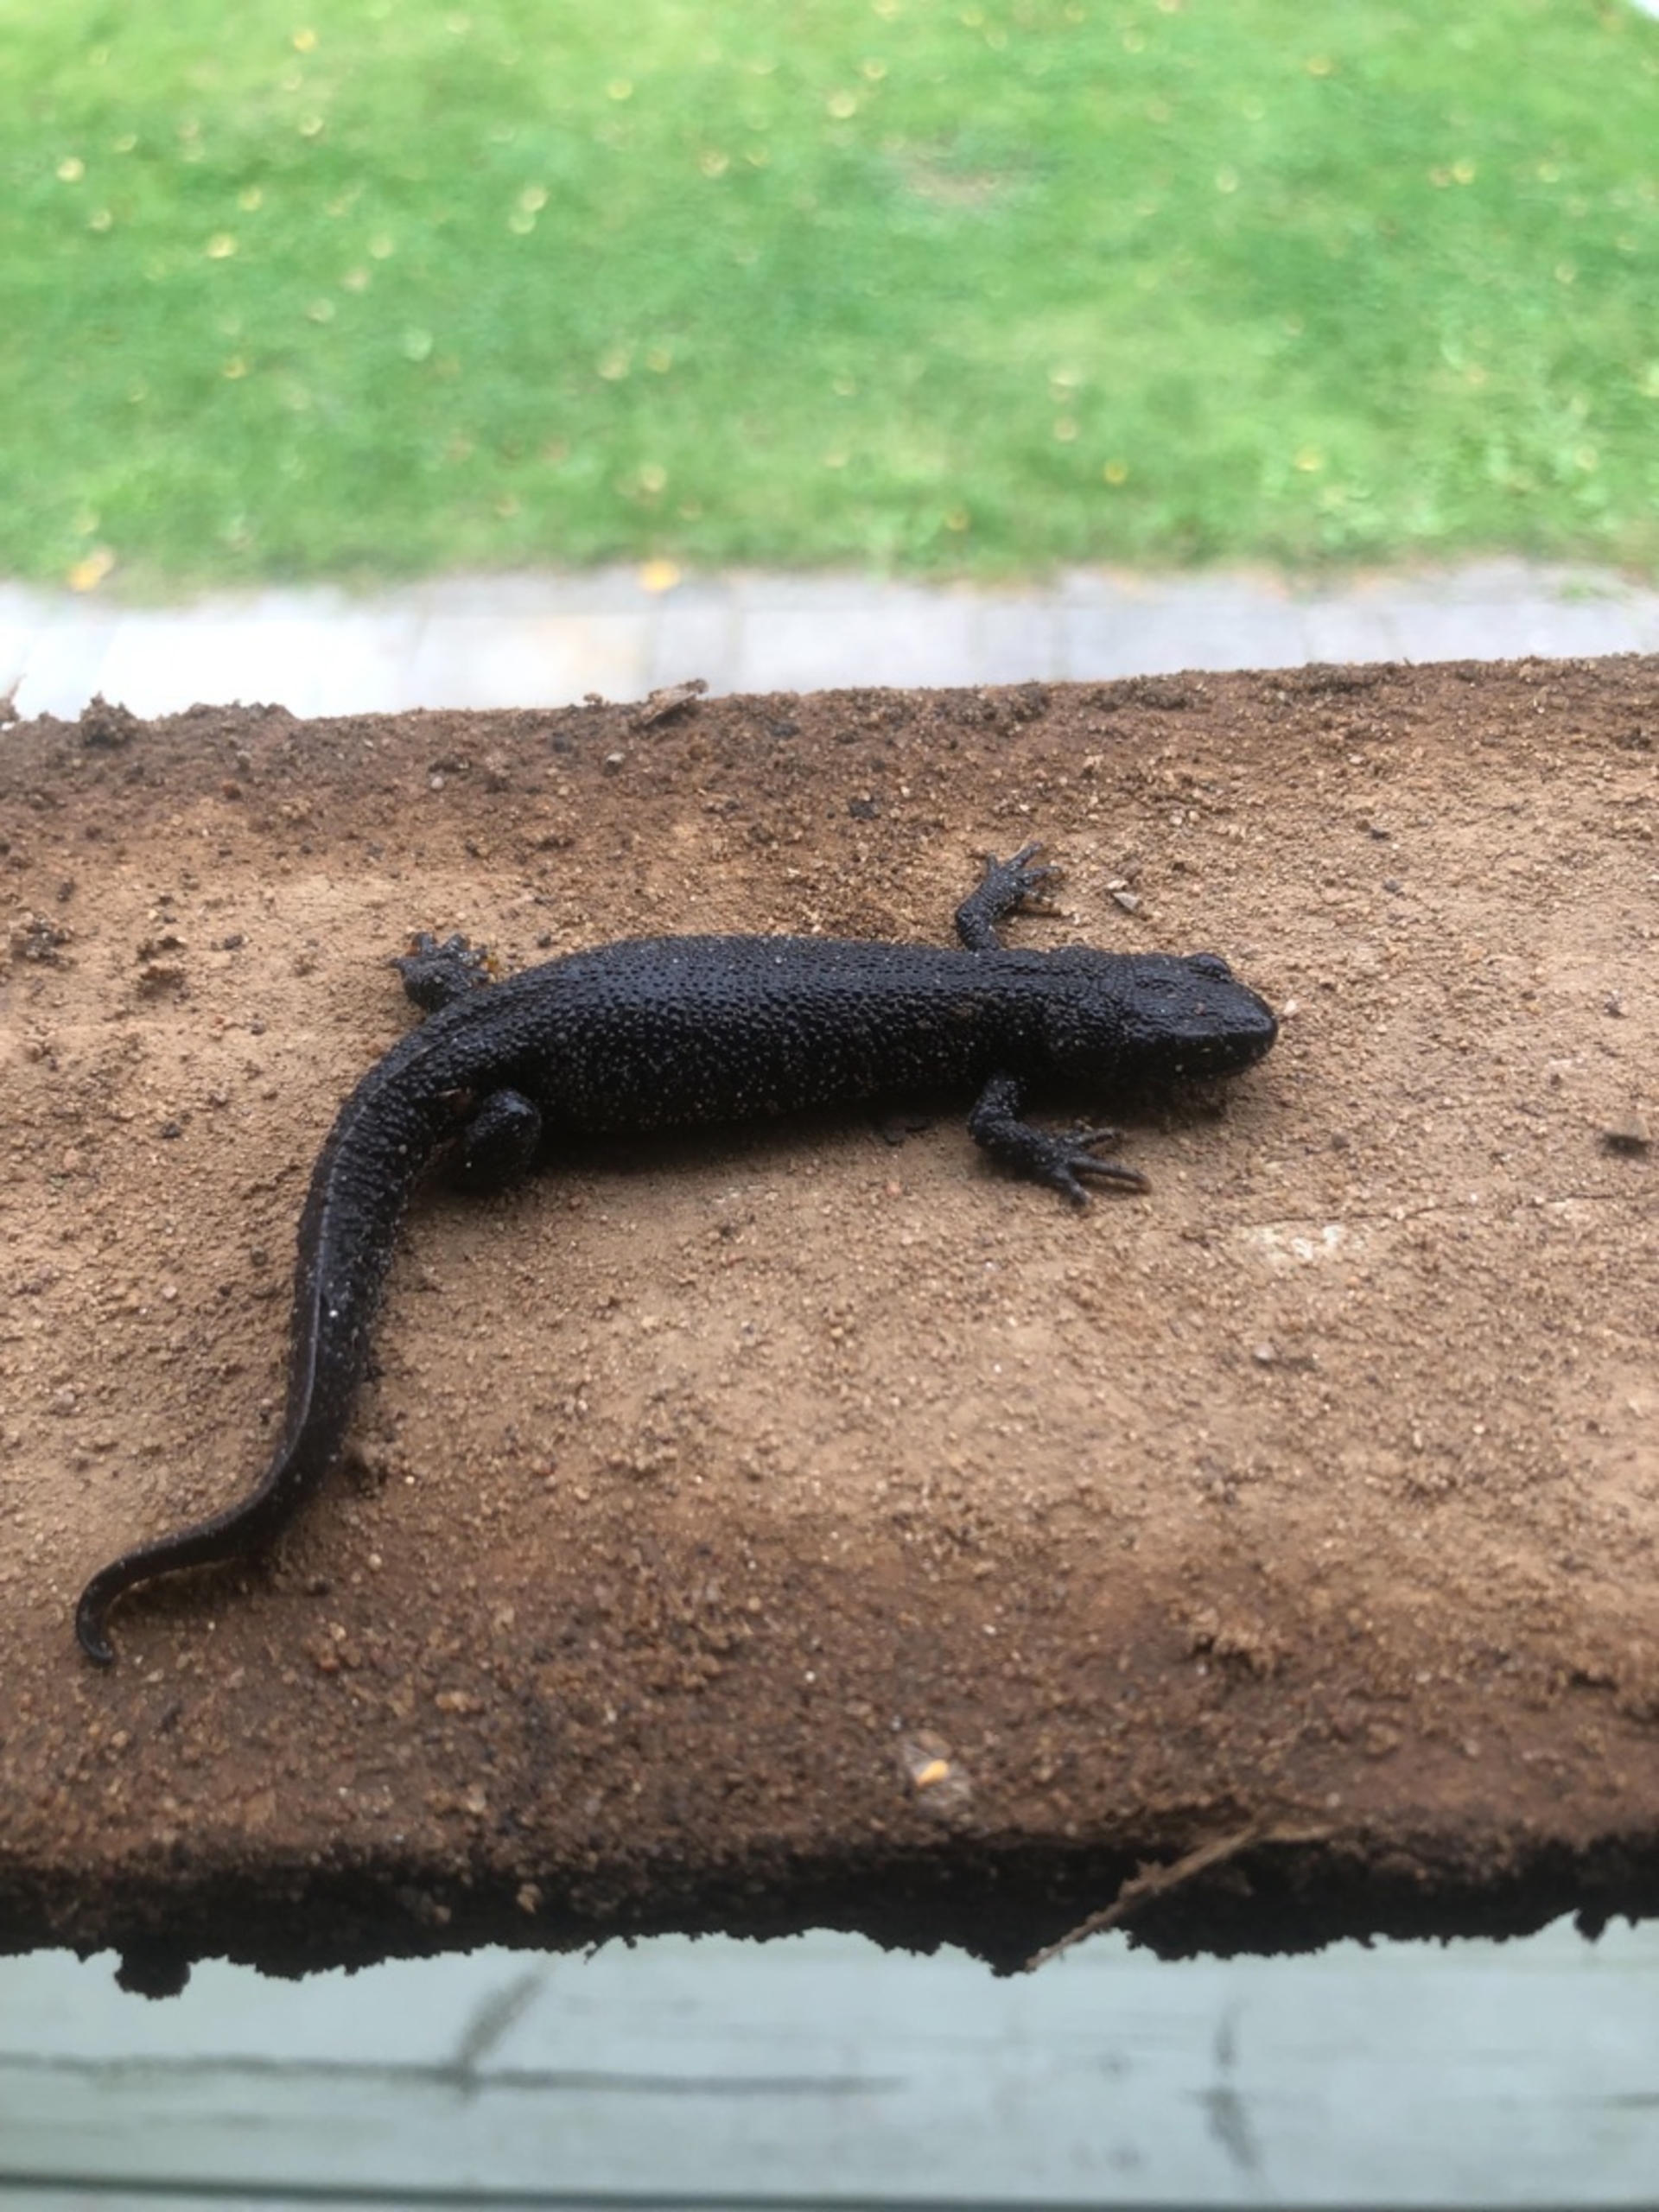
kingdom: Animalia
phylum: Chordata
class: Amphibia
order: Caudata
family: Salamandridae
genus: Triturus
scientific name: Triturus cristatus
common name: Stor vandsalamander
